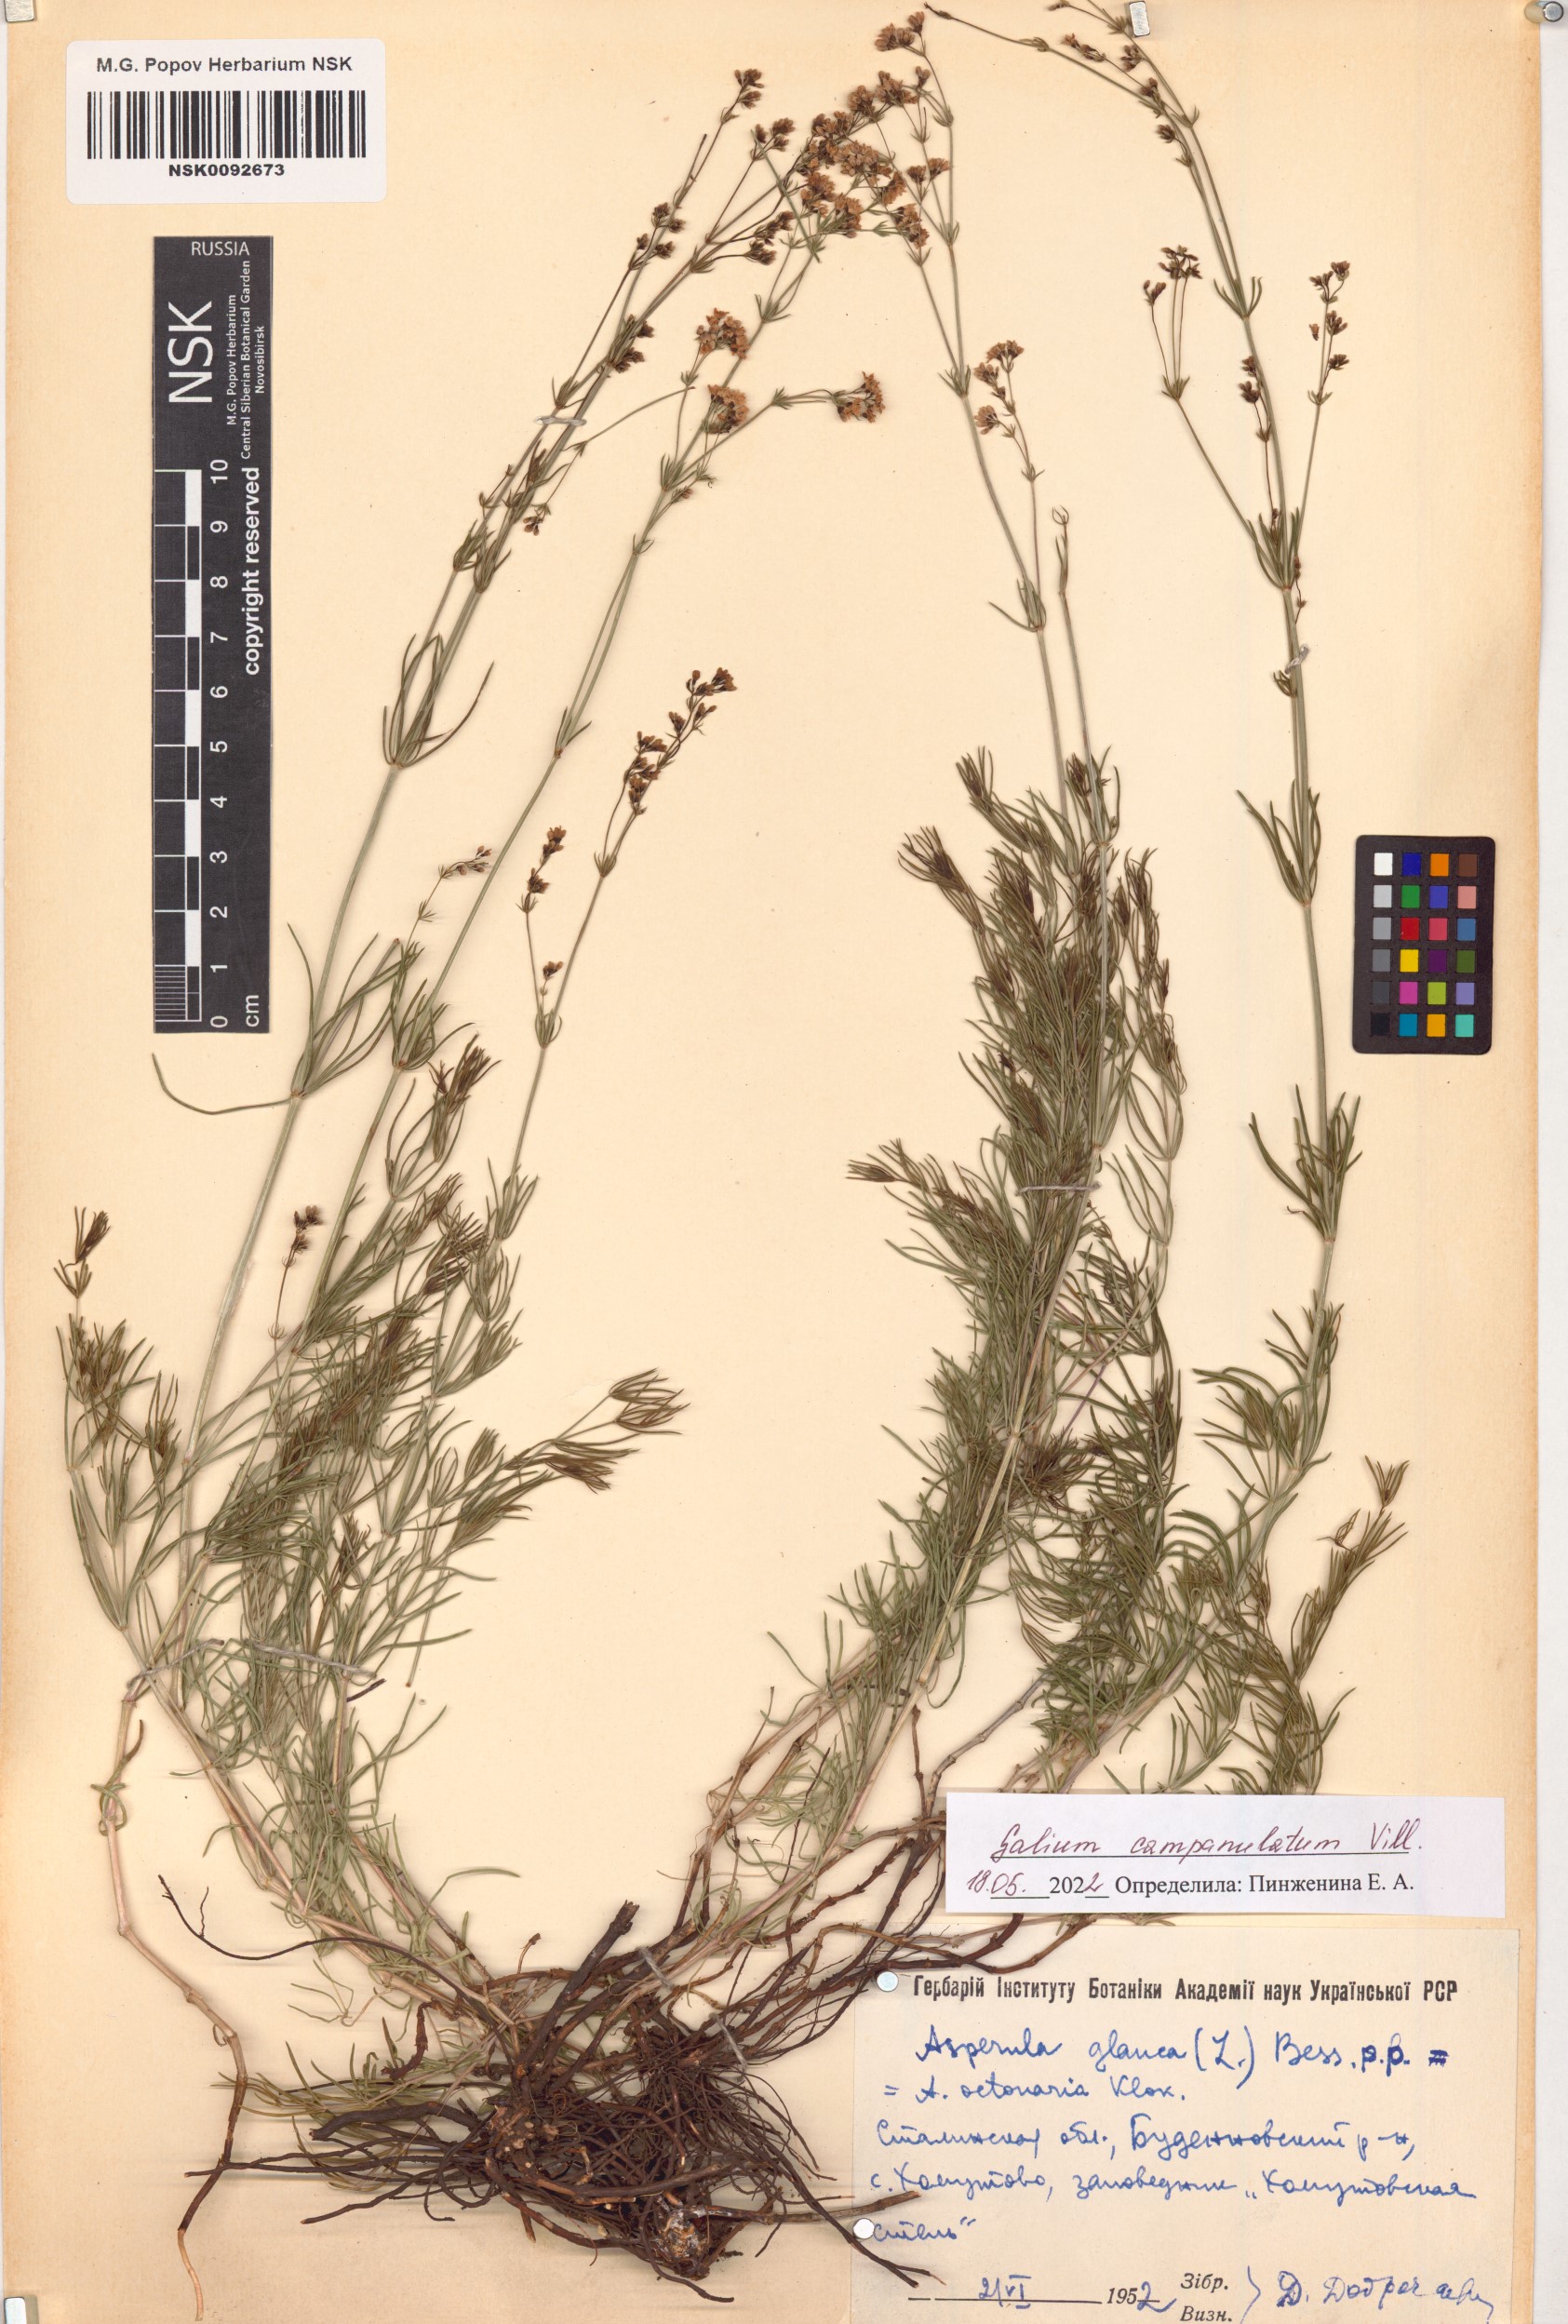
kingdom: Plantae
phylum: Tracheophyta
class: Magnoliopsida
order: Gentianales
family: Rubiaceae
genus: Galium
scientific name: Galium glaucum
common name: Waxy bedstraw
